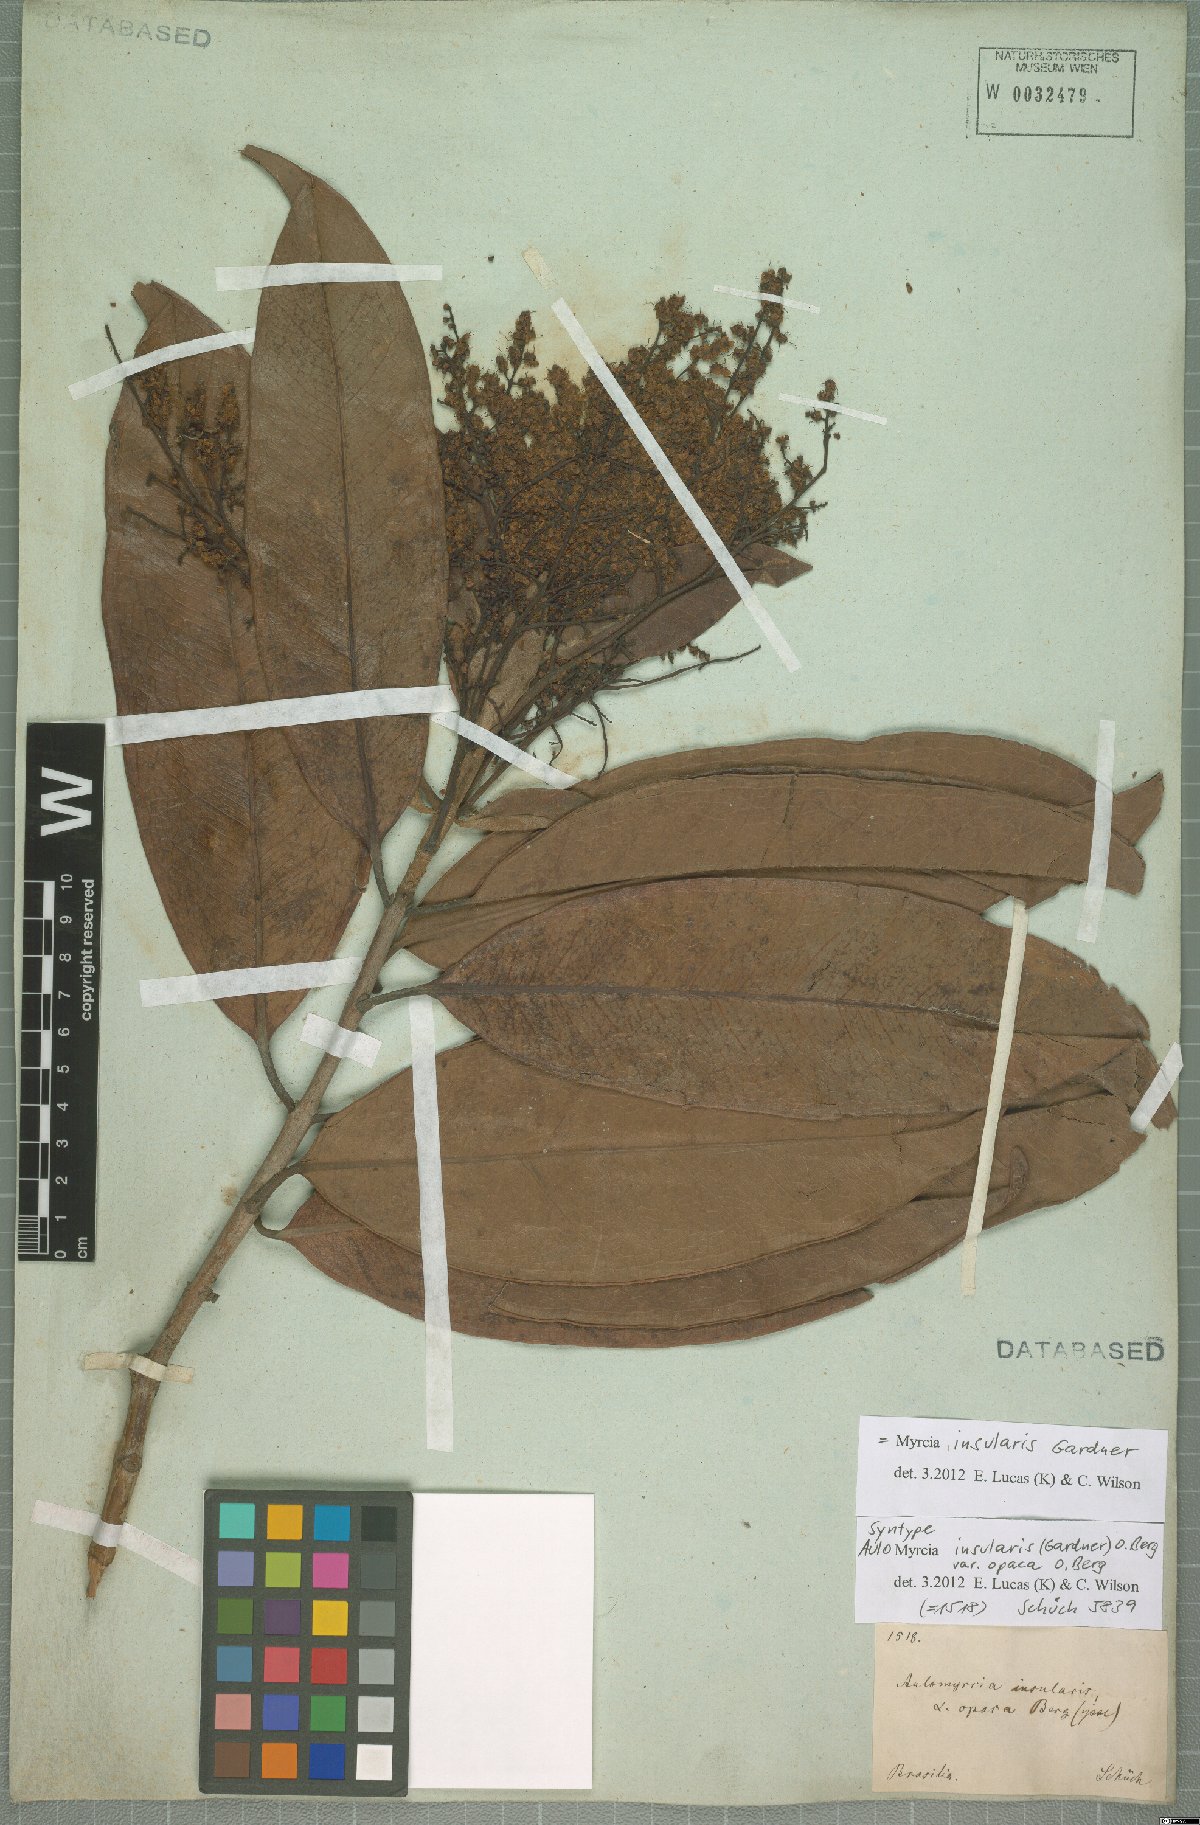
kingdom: Plantae
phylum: Tracheophyta
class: Magnoliopsida
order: Myrtales
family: Myrtaceae
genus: Myrcia
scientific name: Myrcia insularis
